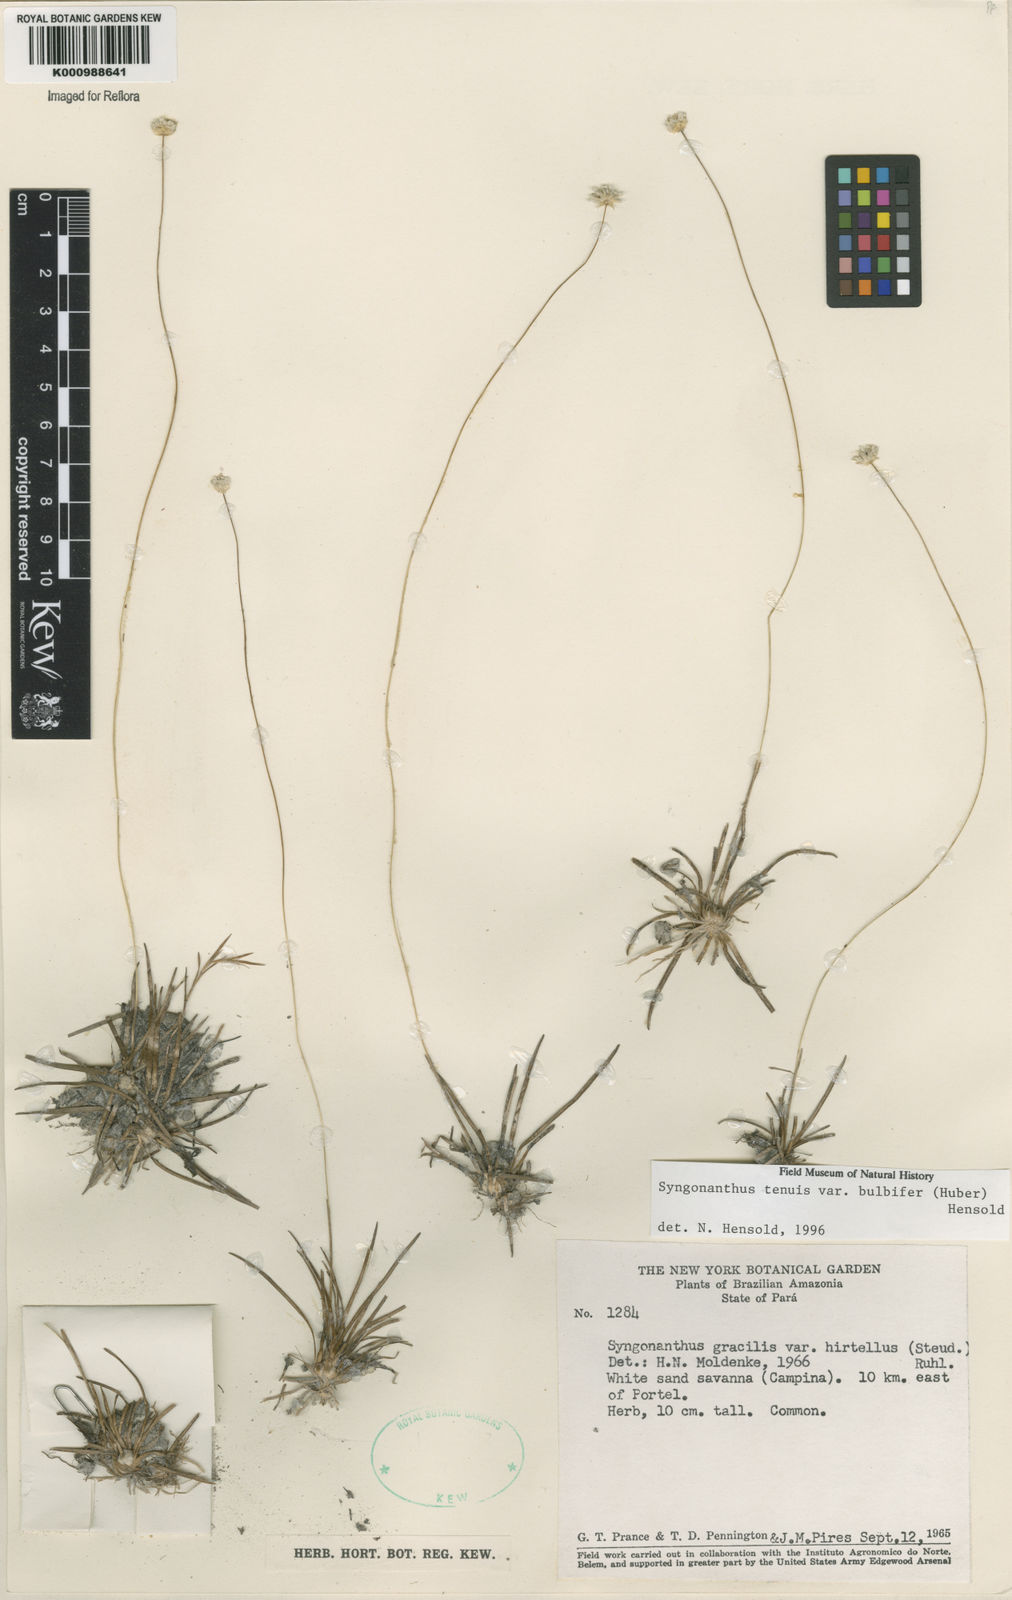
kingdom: Plantae
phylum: Tracheophyta
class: Liliopsida
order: Poales
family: Eriocaulaceae
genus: Syngonanthus
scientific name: Syngonanthus tenuis
